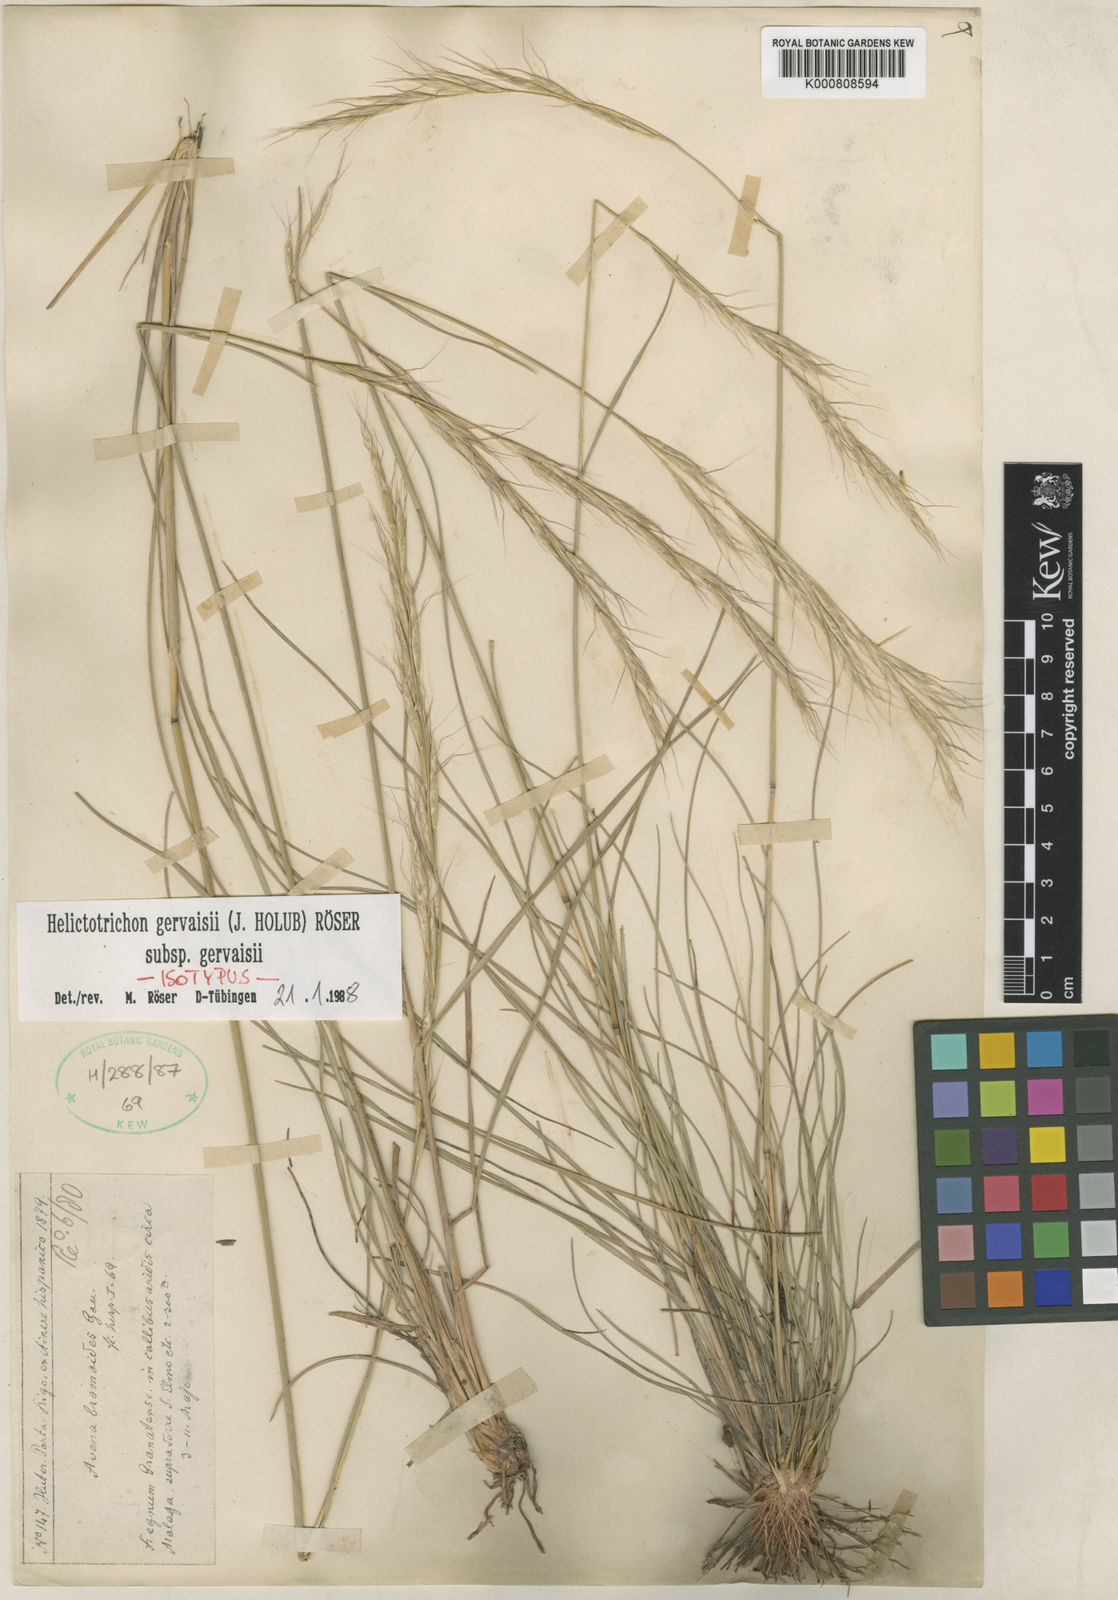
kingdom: Plantae
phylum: Tracheophyta
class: Liliopsida
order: Poales
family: Poaceae
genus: Helictotrichon
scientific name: Helictotrichon
